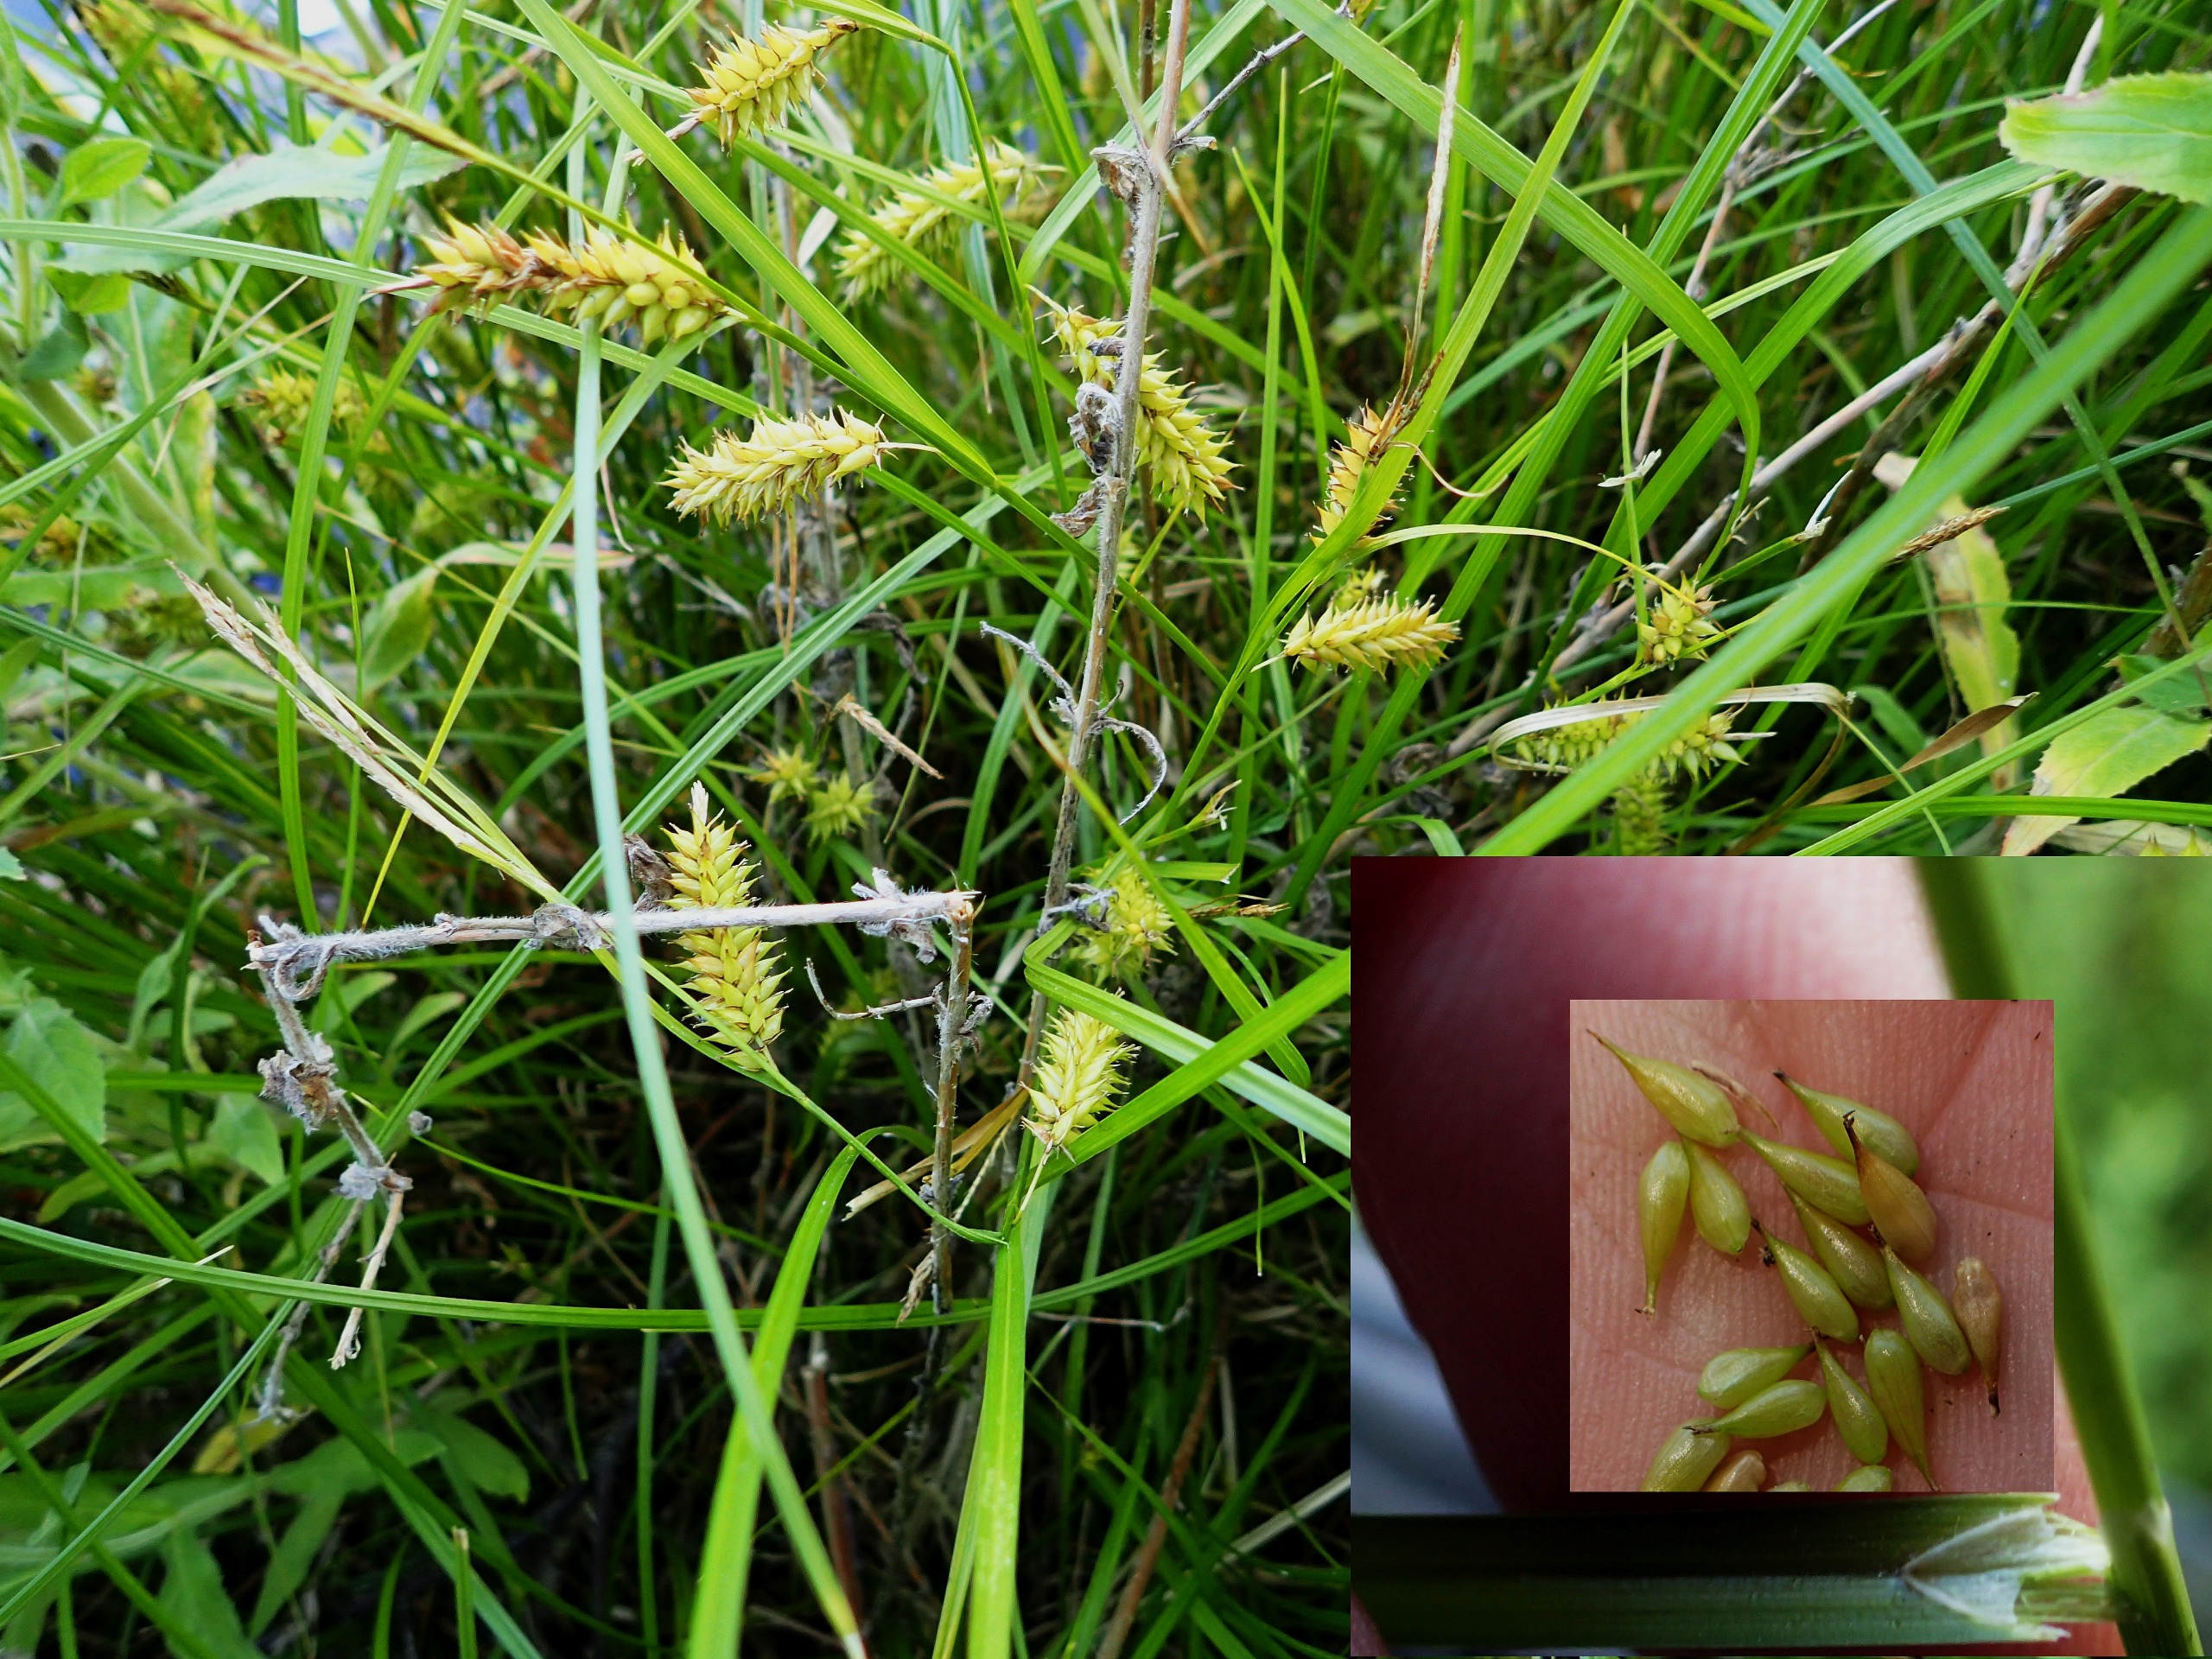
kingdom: Plantae
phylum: Tracheophyta
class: Liliopsida
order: Poales
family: Cyperaceae
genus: Carex
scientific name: Carex vesicaria
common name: Blære-star
